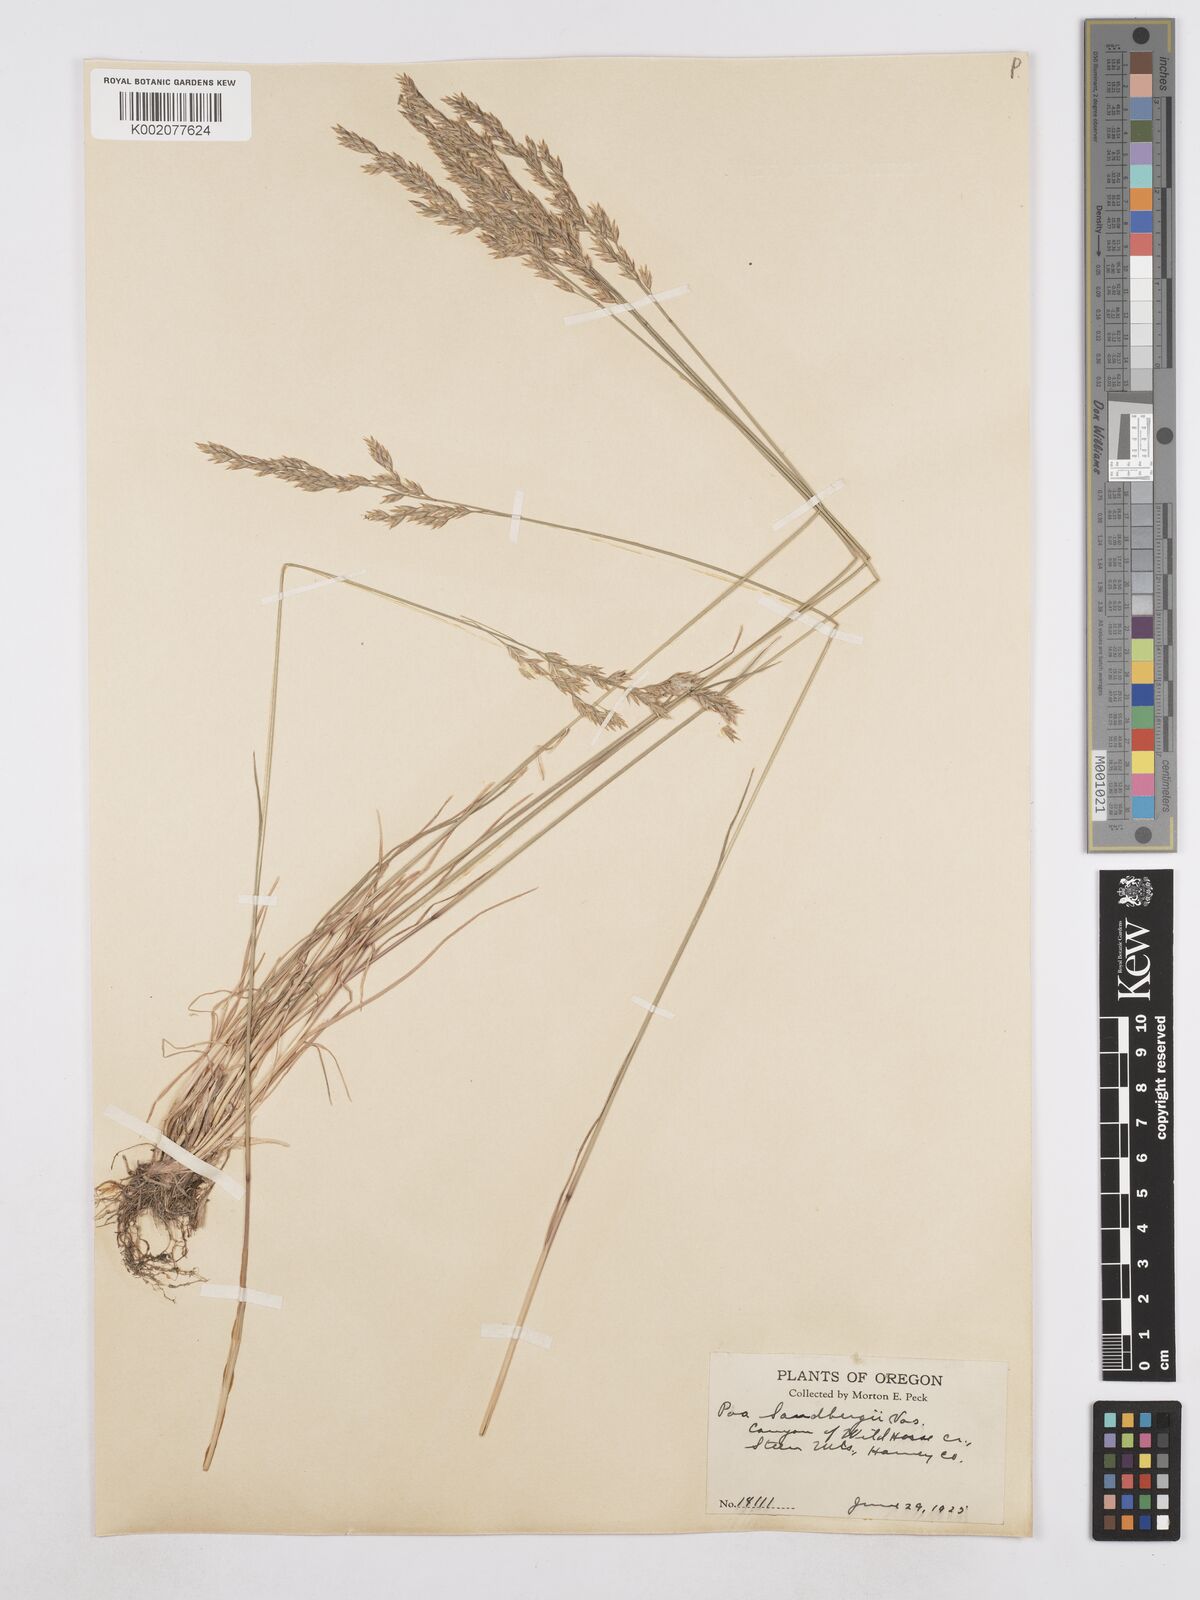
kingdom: Plantae
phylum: Tracheophyta
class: Liliopsida
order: Poales
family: Poaceae
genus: Poa
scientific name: Poa secunda
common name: Sandberg bluegrass
